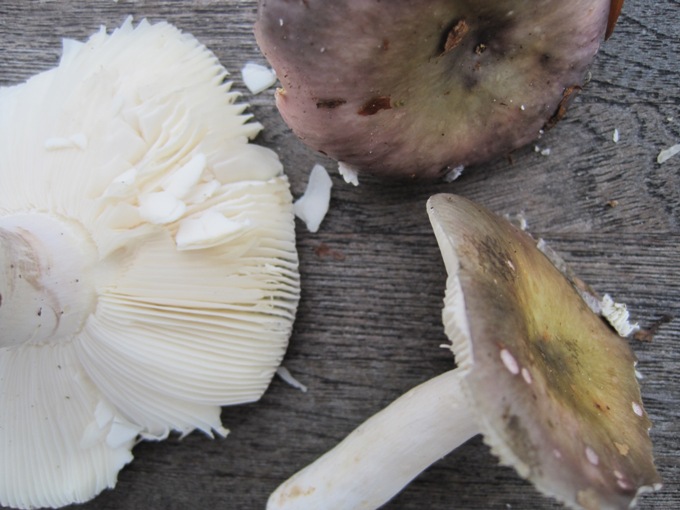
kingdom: Fungi
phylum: Basidiomycota
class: Agaricomycetes
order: Russulales
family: Russulaceae
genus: Russula
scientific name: Russula ionochlora
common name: violetgrøn skørhat
